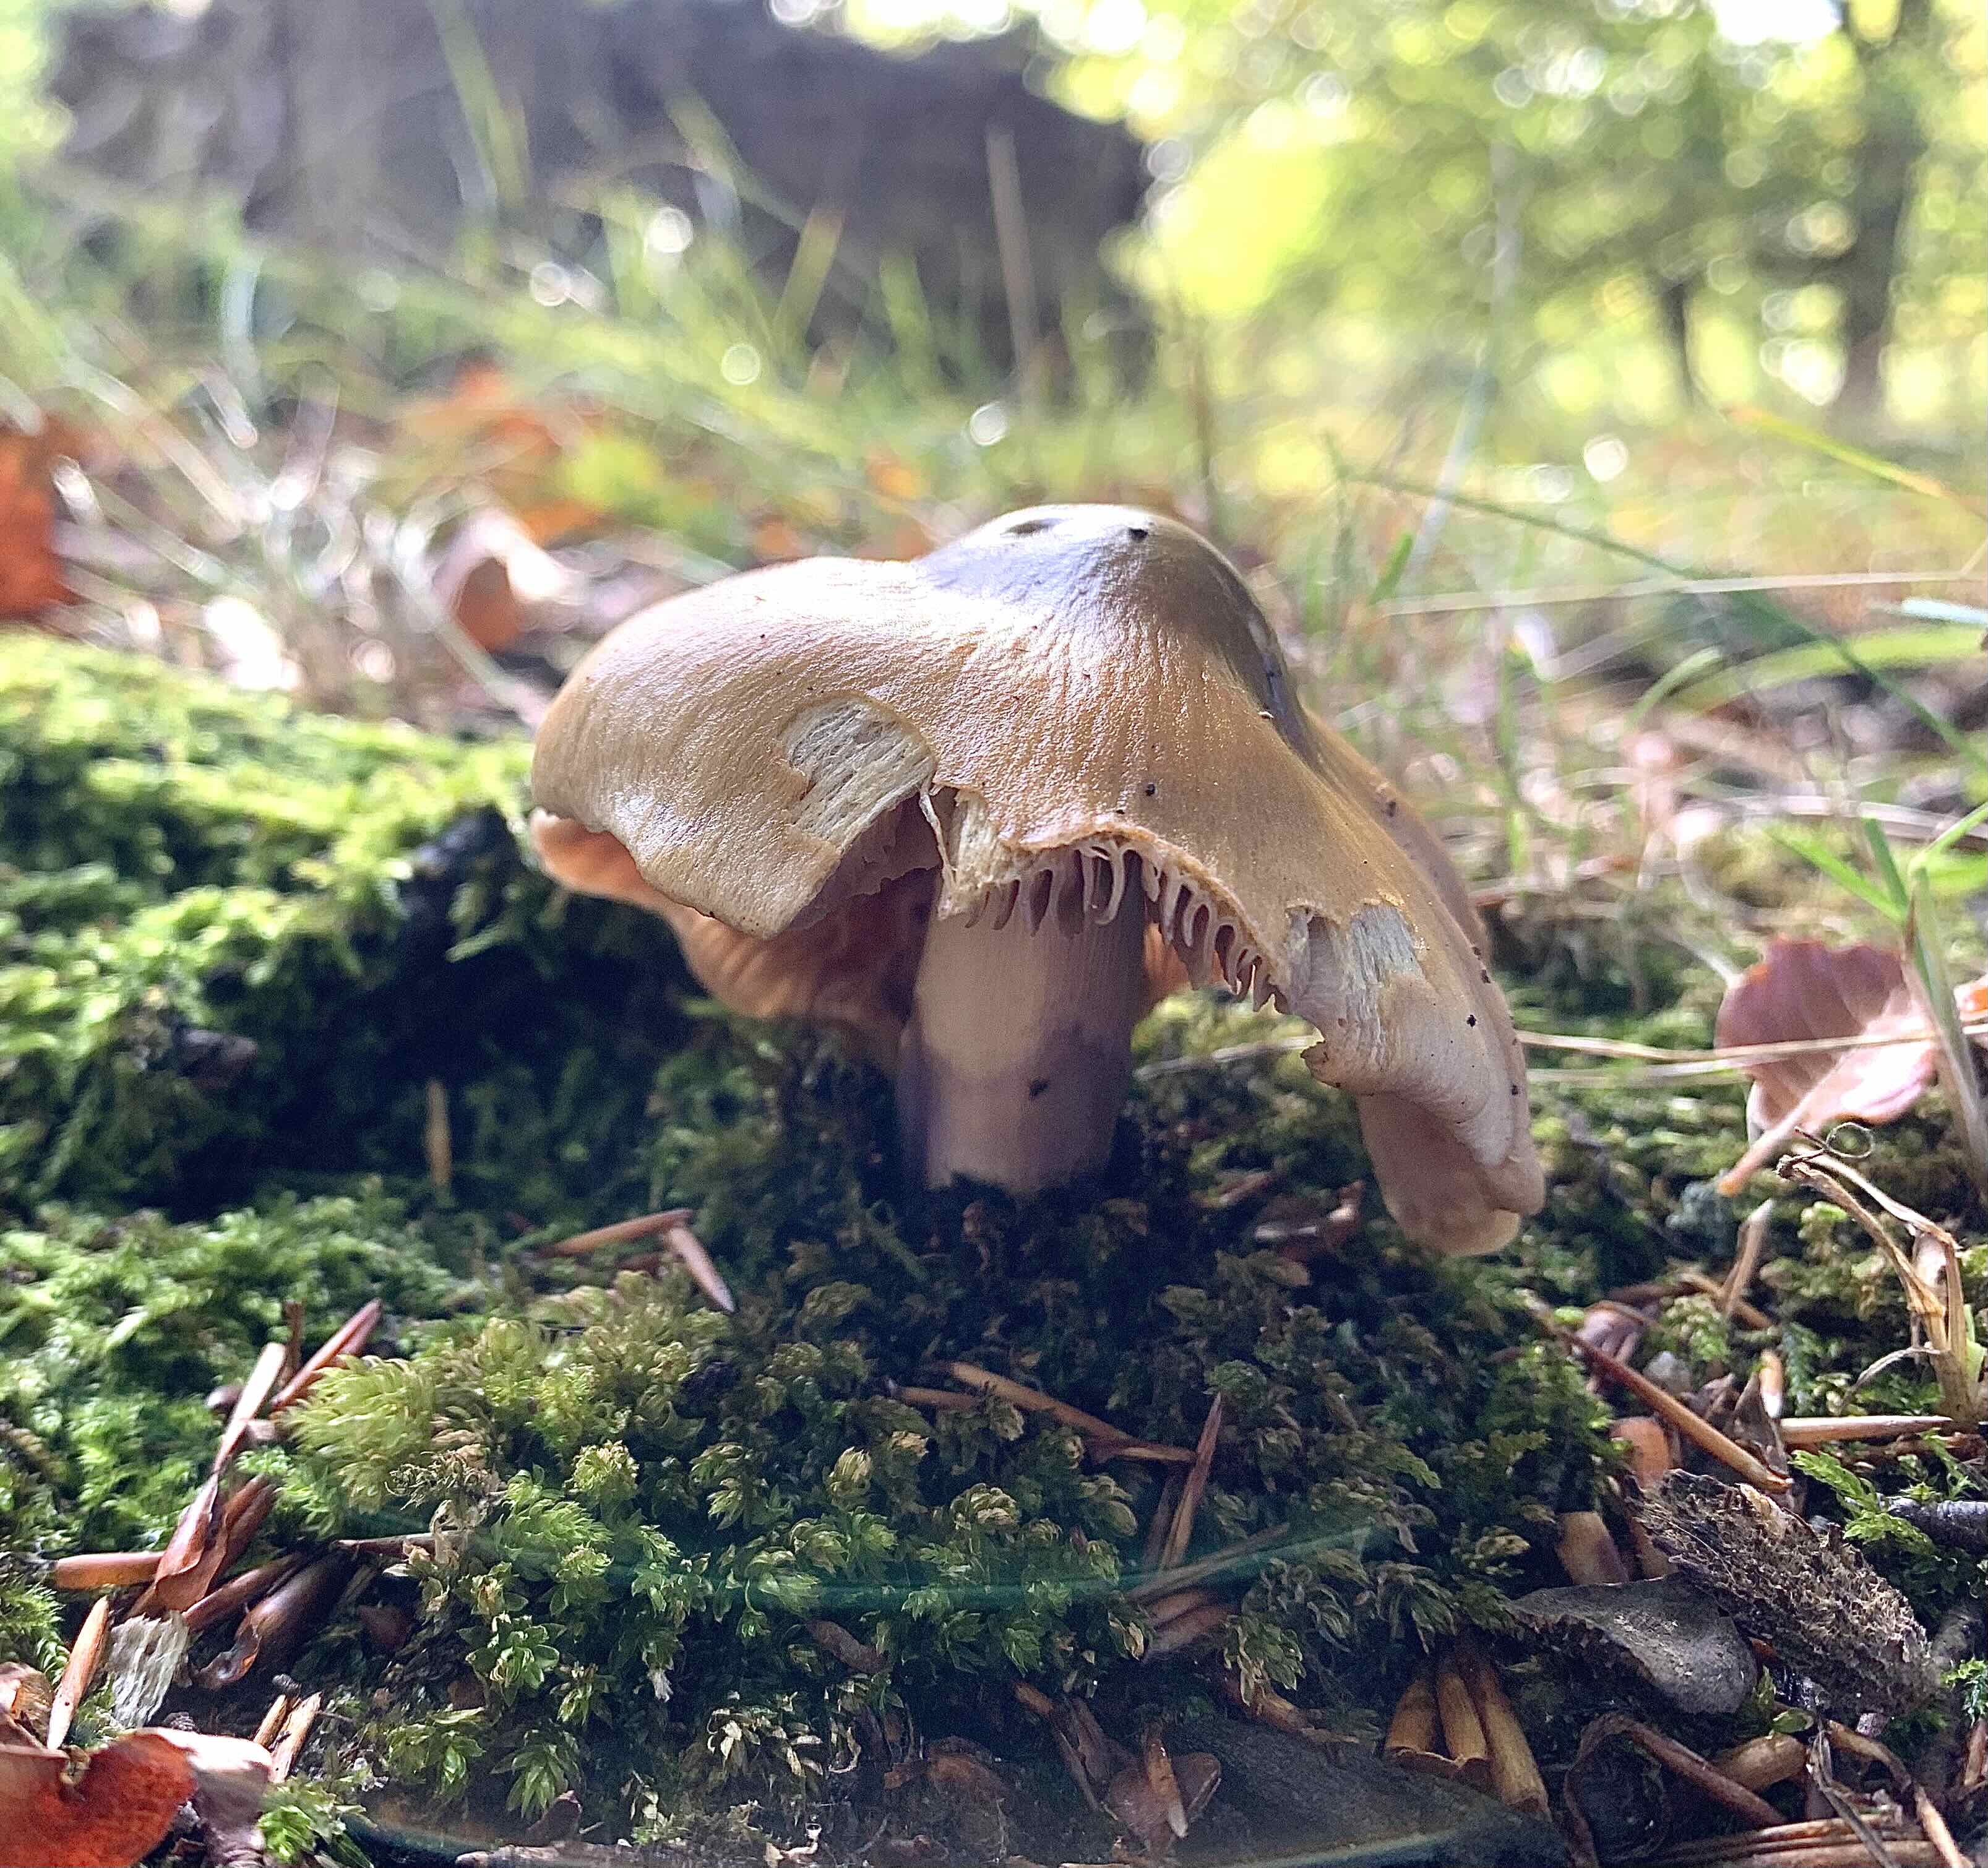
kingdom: Fungi
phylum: Basidiomycota
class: Agaricomycetes
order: Agaricales
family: Cortinariaceae
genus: Cortinarius
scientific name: Cortinarius elatior
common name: høj slørhat
